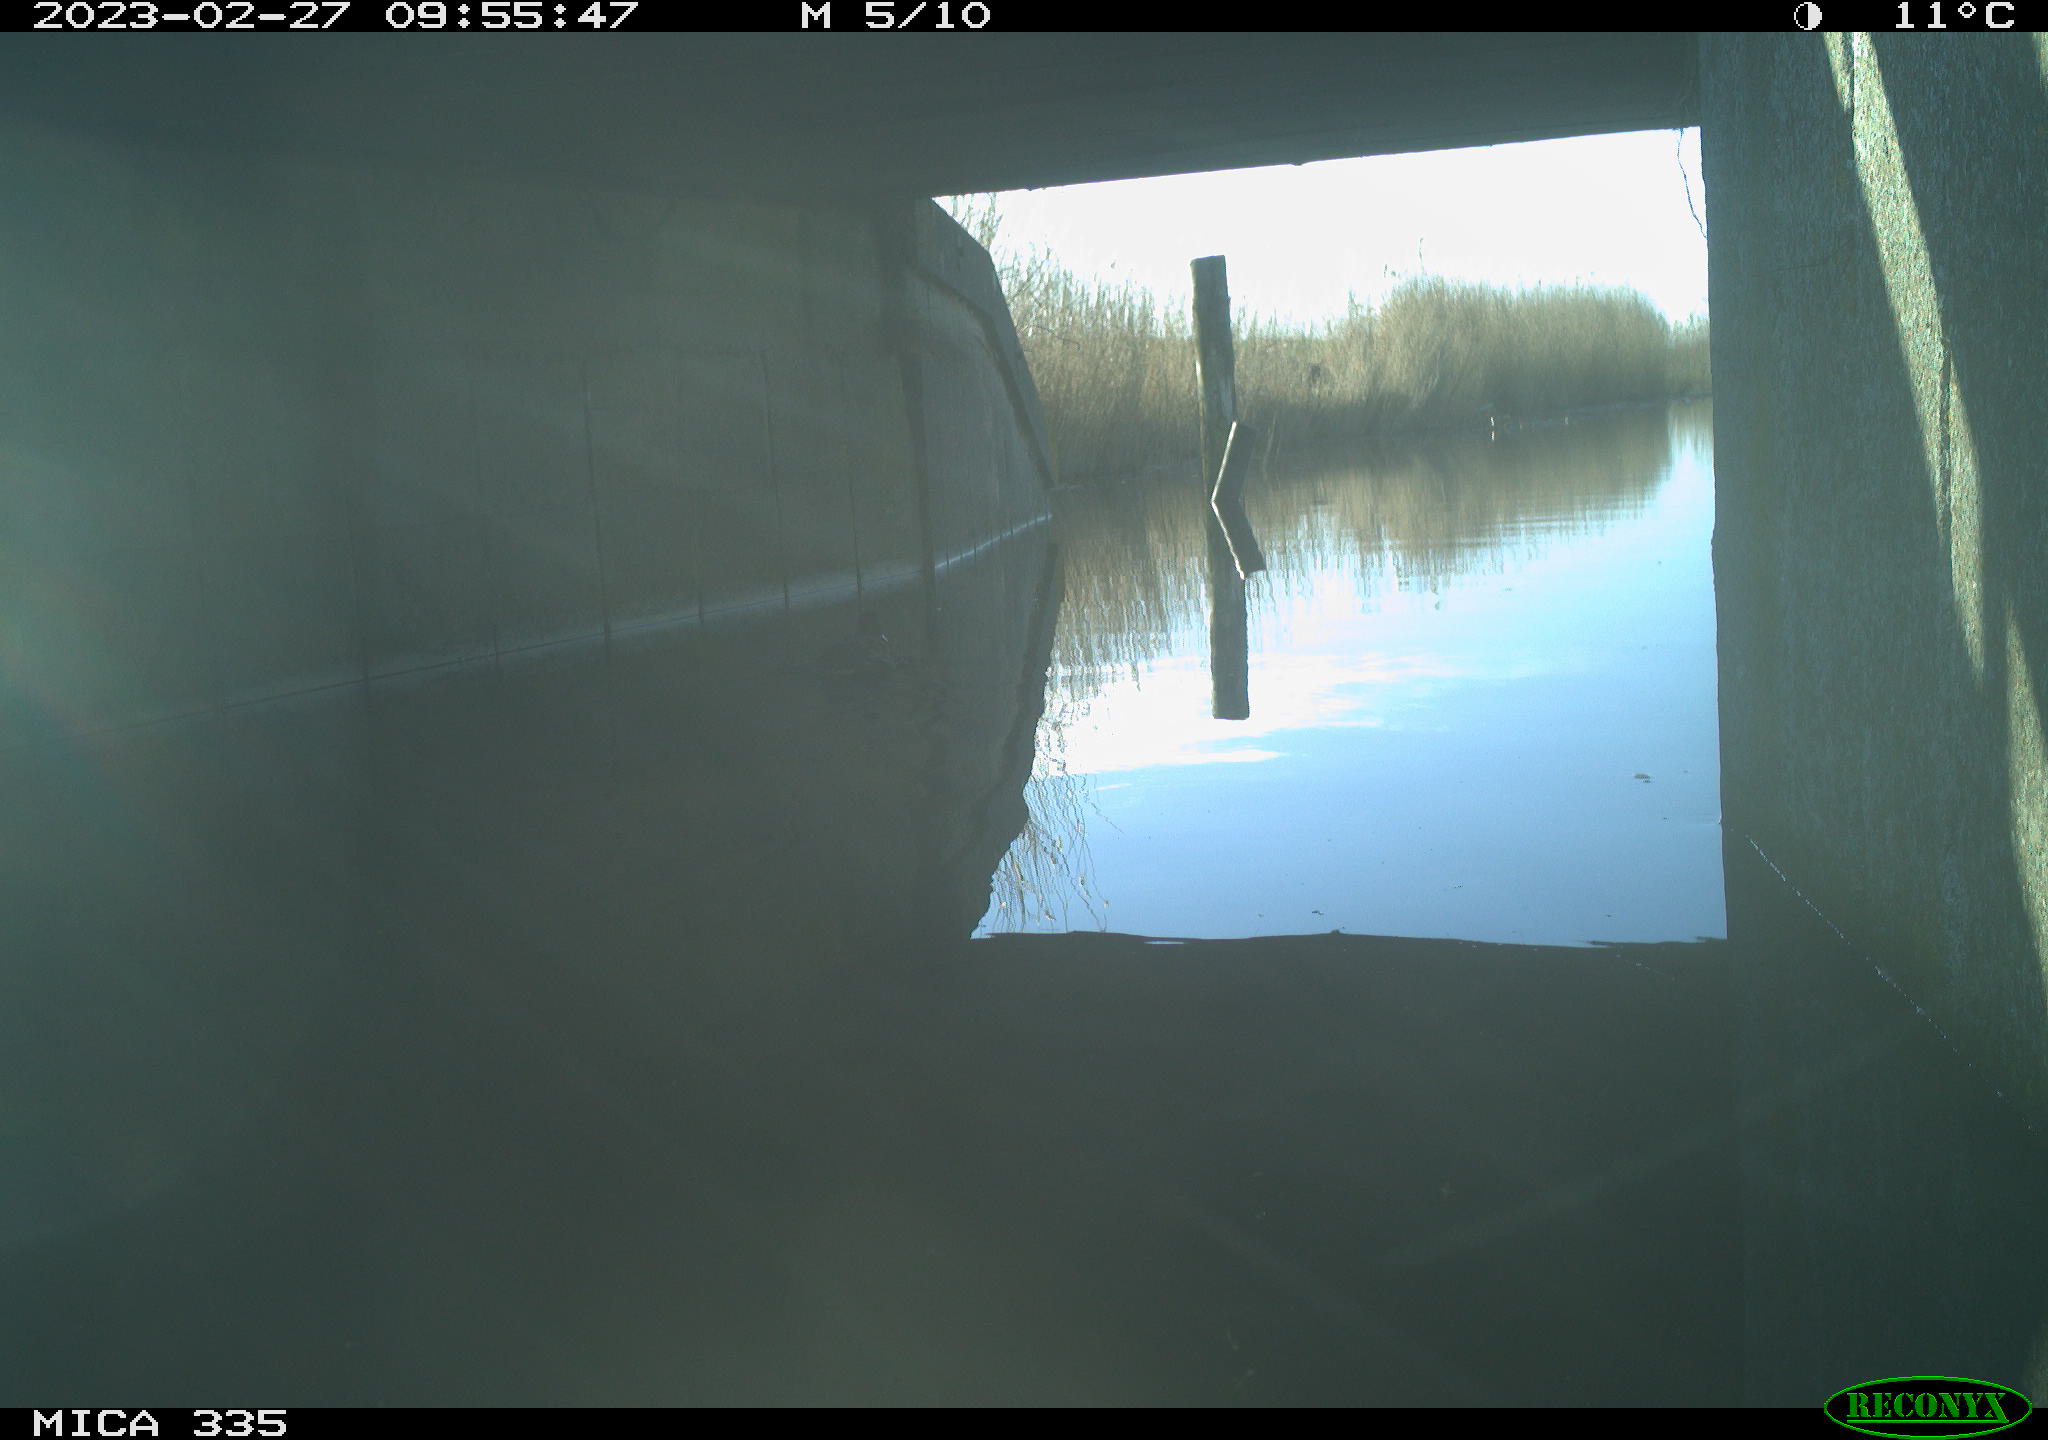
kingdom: Animalia
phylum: Chordata
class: Aves
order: Anseriformes
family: Anatidae
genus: Anas
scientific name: Anas
